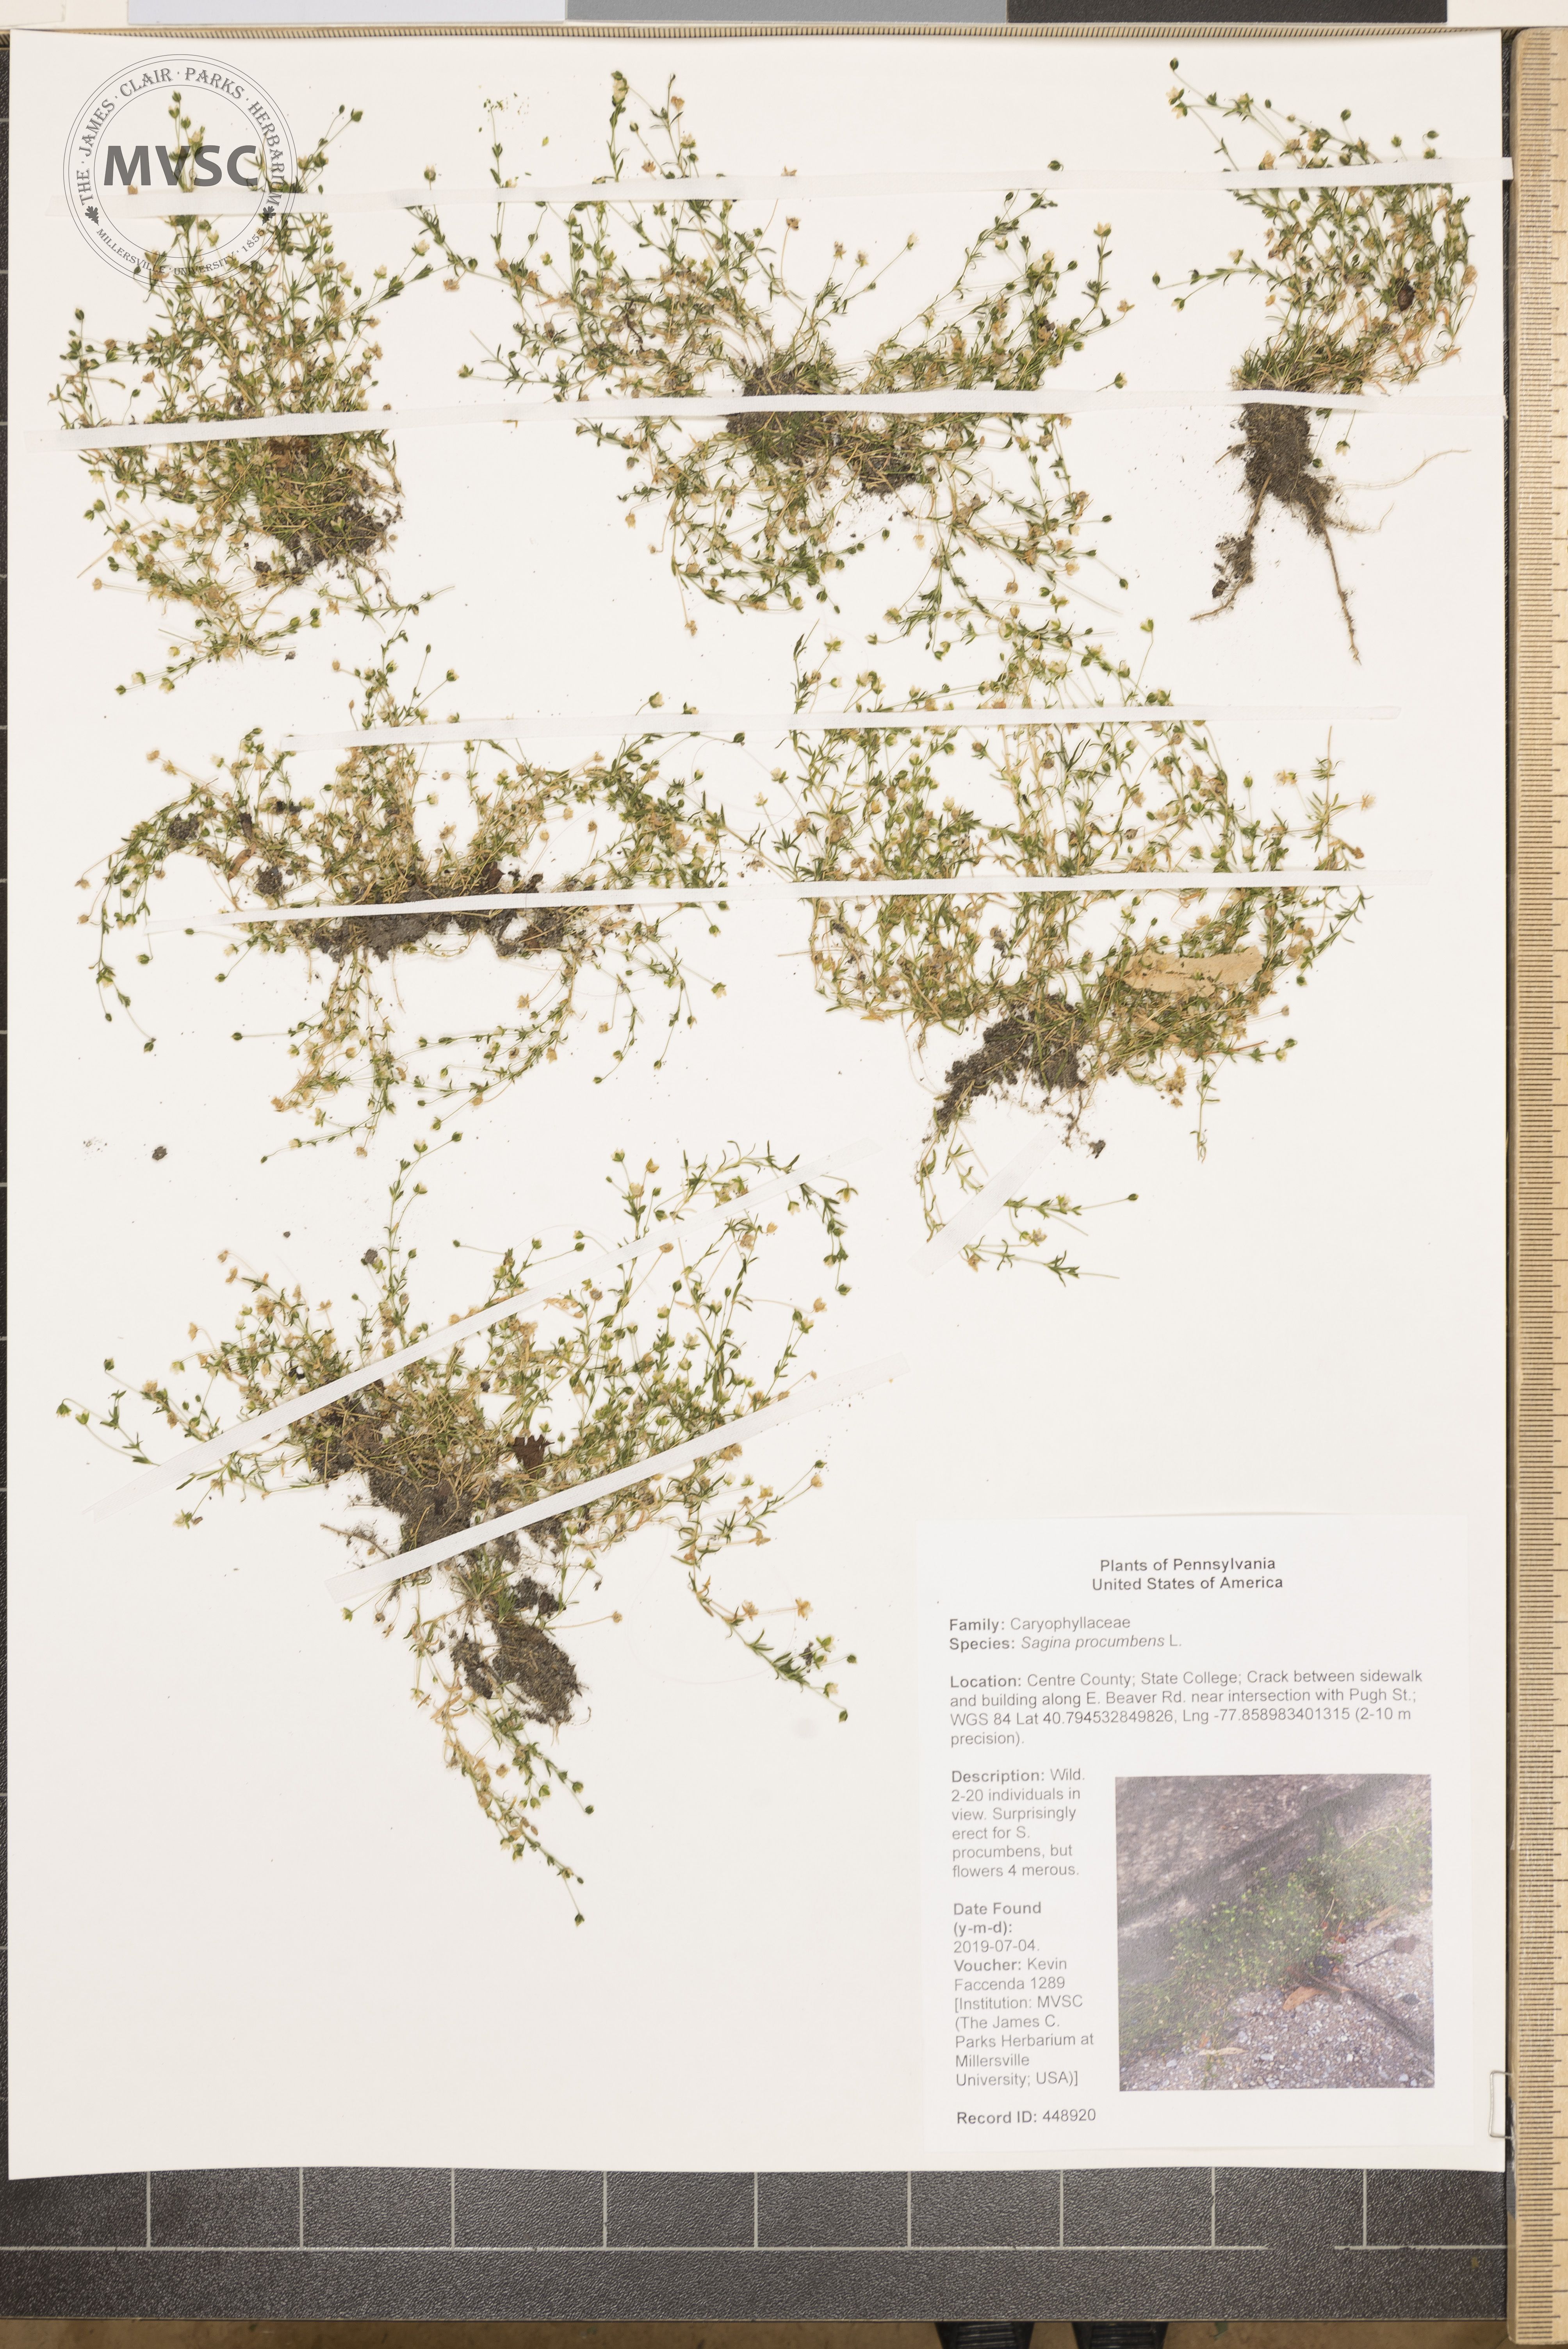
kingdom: Plantae
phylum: Tracheophyta
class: Magnoliopsida
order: Caryophyllales
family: Caryophyllaceae
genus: Sagina
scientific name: Sagina procumbens
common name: Procumbent pearlwort
